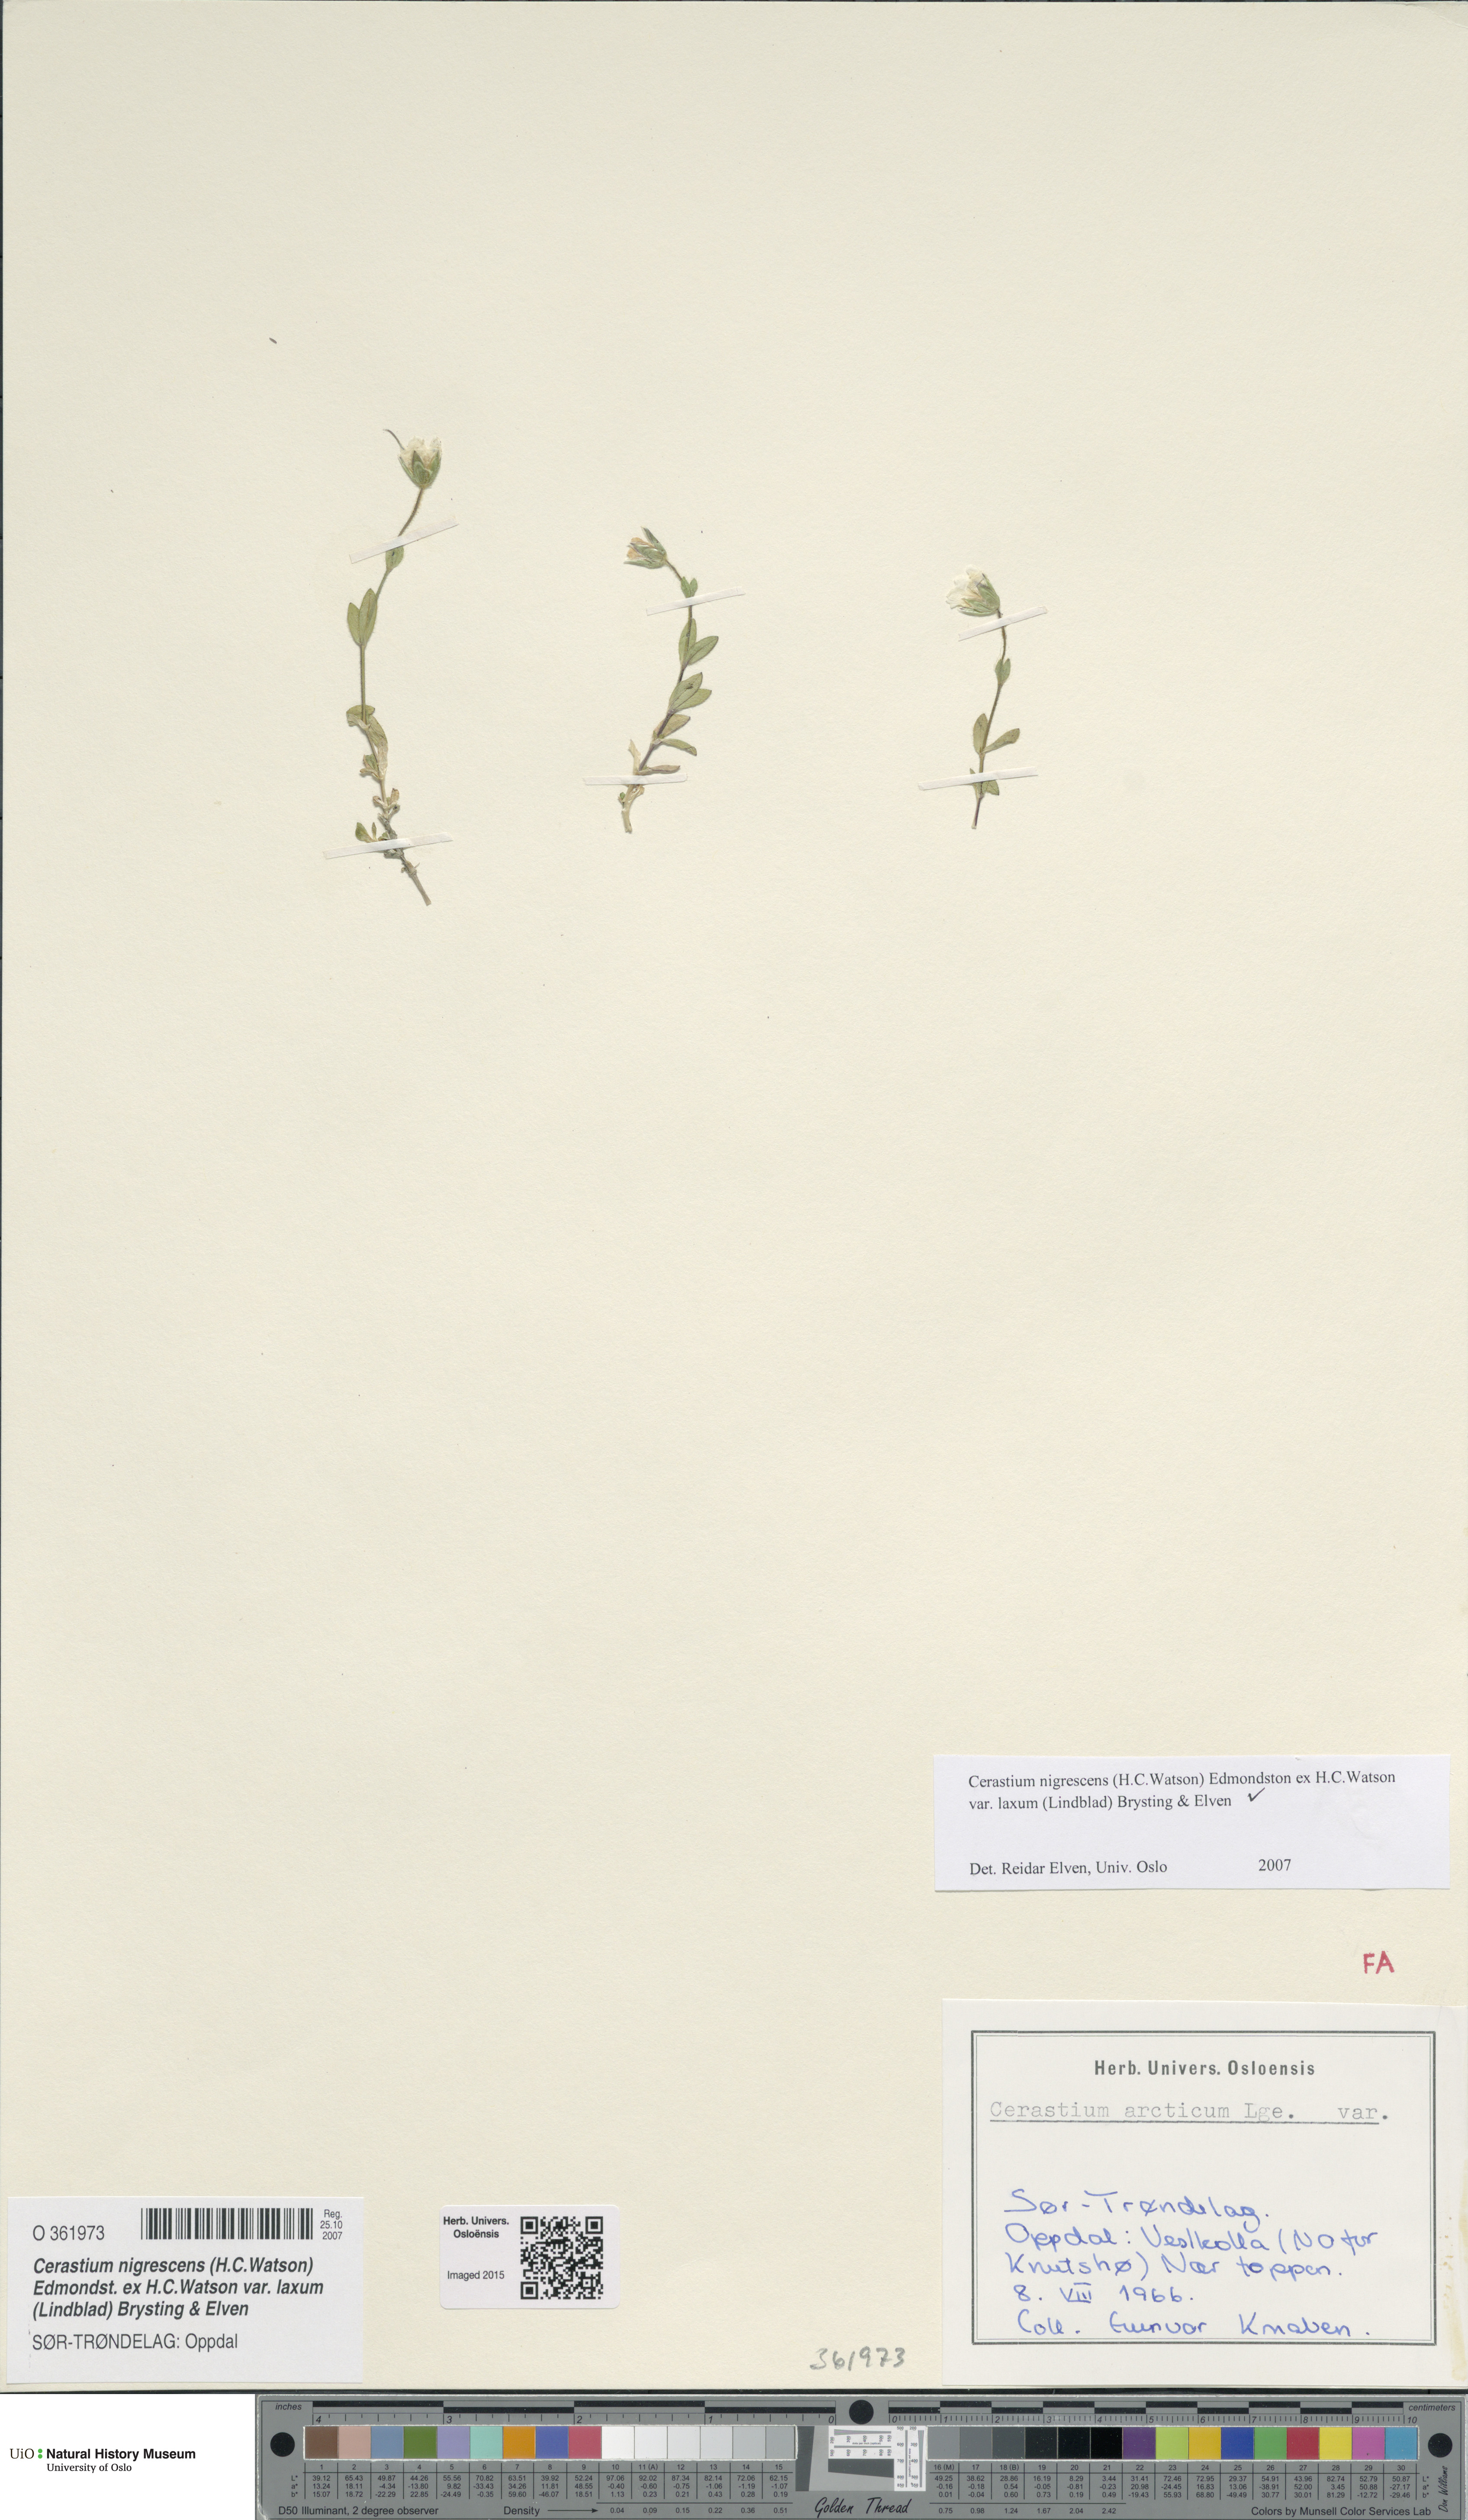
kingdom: Plantae
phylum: Tracheophyta
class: Magnoliopsida
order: Caryophyllales
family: Caryophyllaceae
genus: Cerastium
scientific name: Cerastium nigrescens
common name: Shetland mouse-ear
